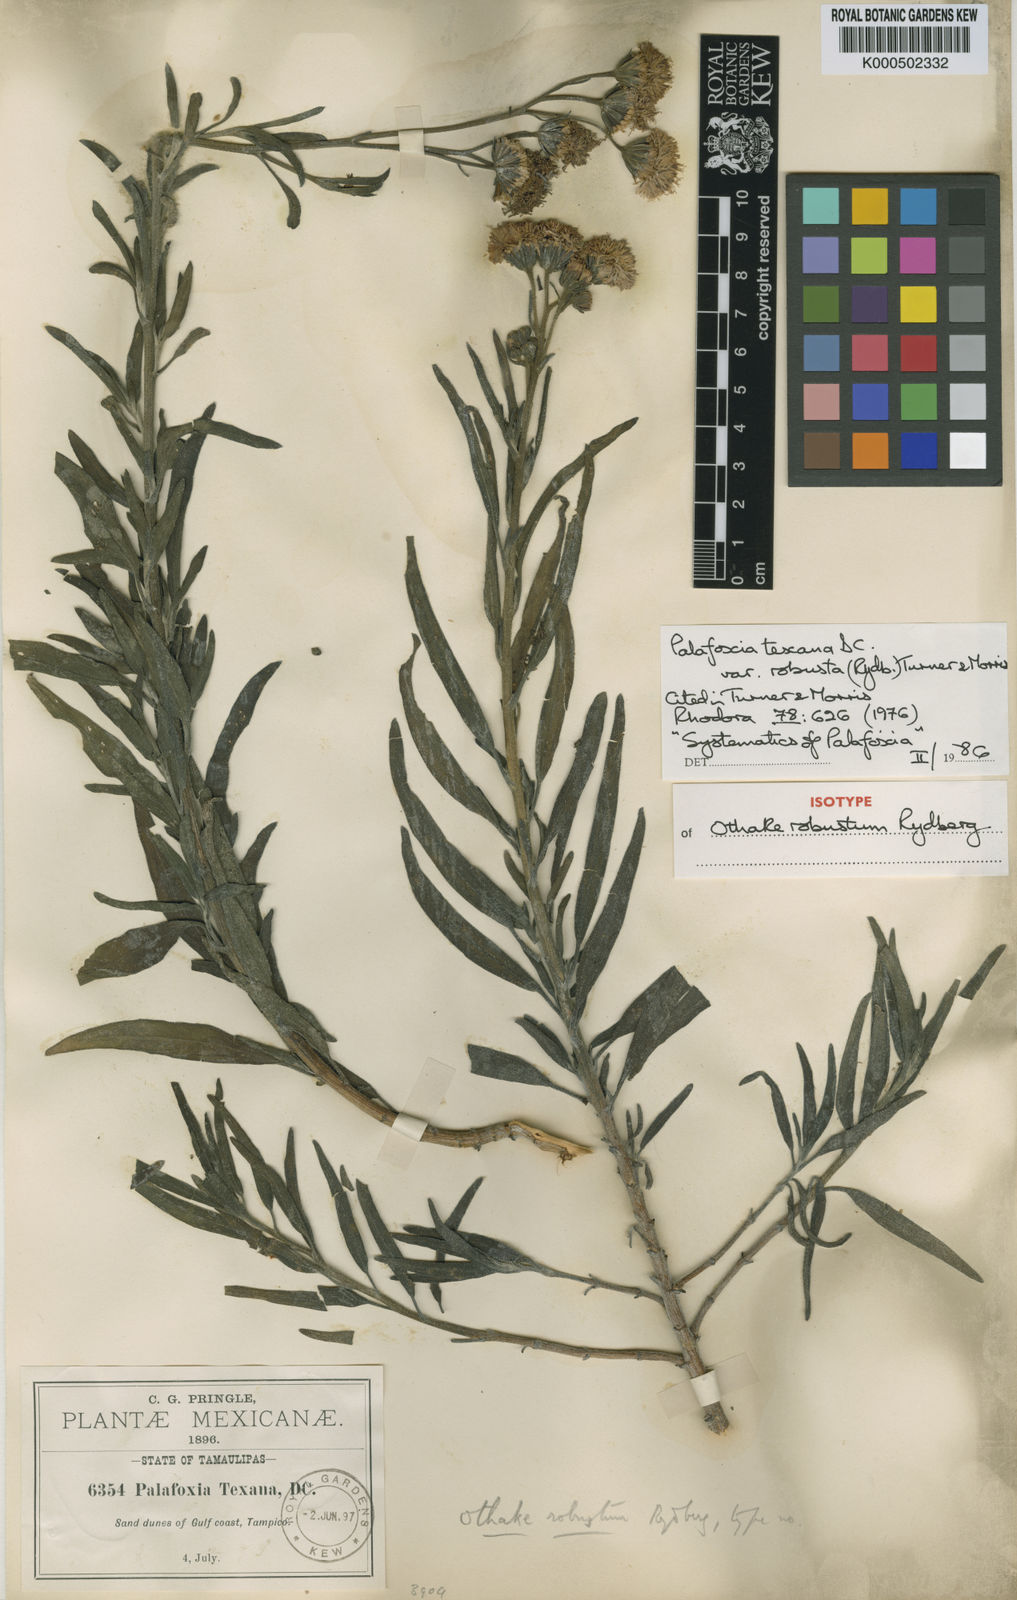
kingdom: Plantae
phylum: Tracheophyta
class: Magnoliopsida
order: Asterales
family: Asteraceae
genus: Palafoxia
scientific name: Palafoxia texana
